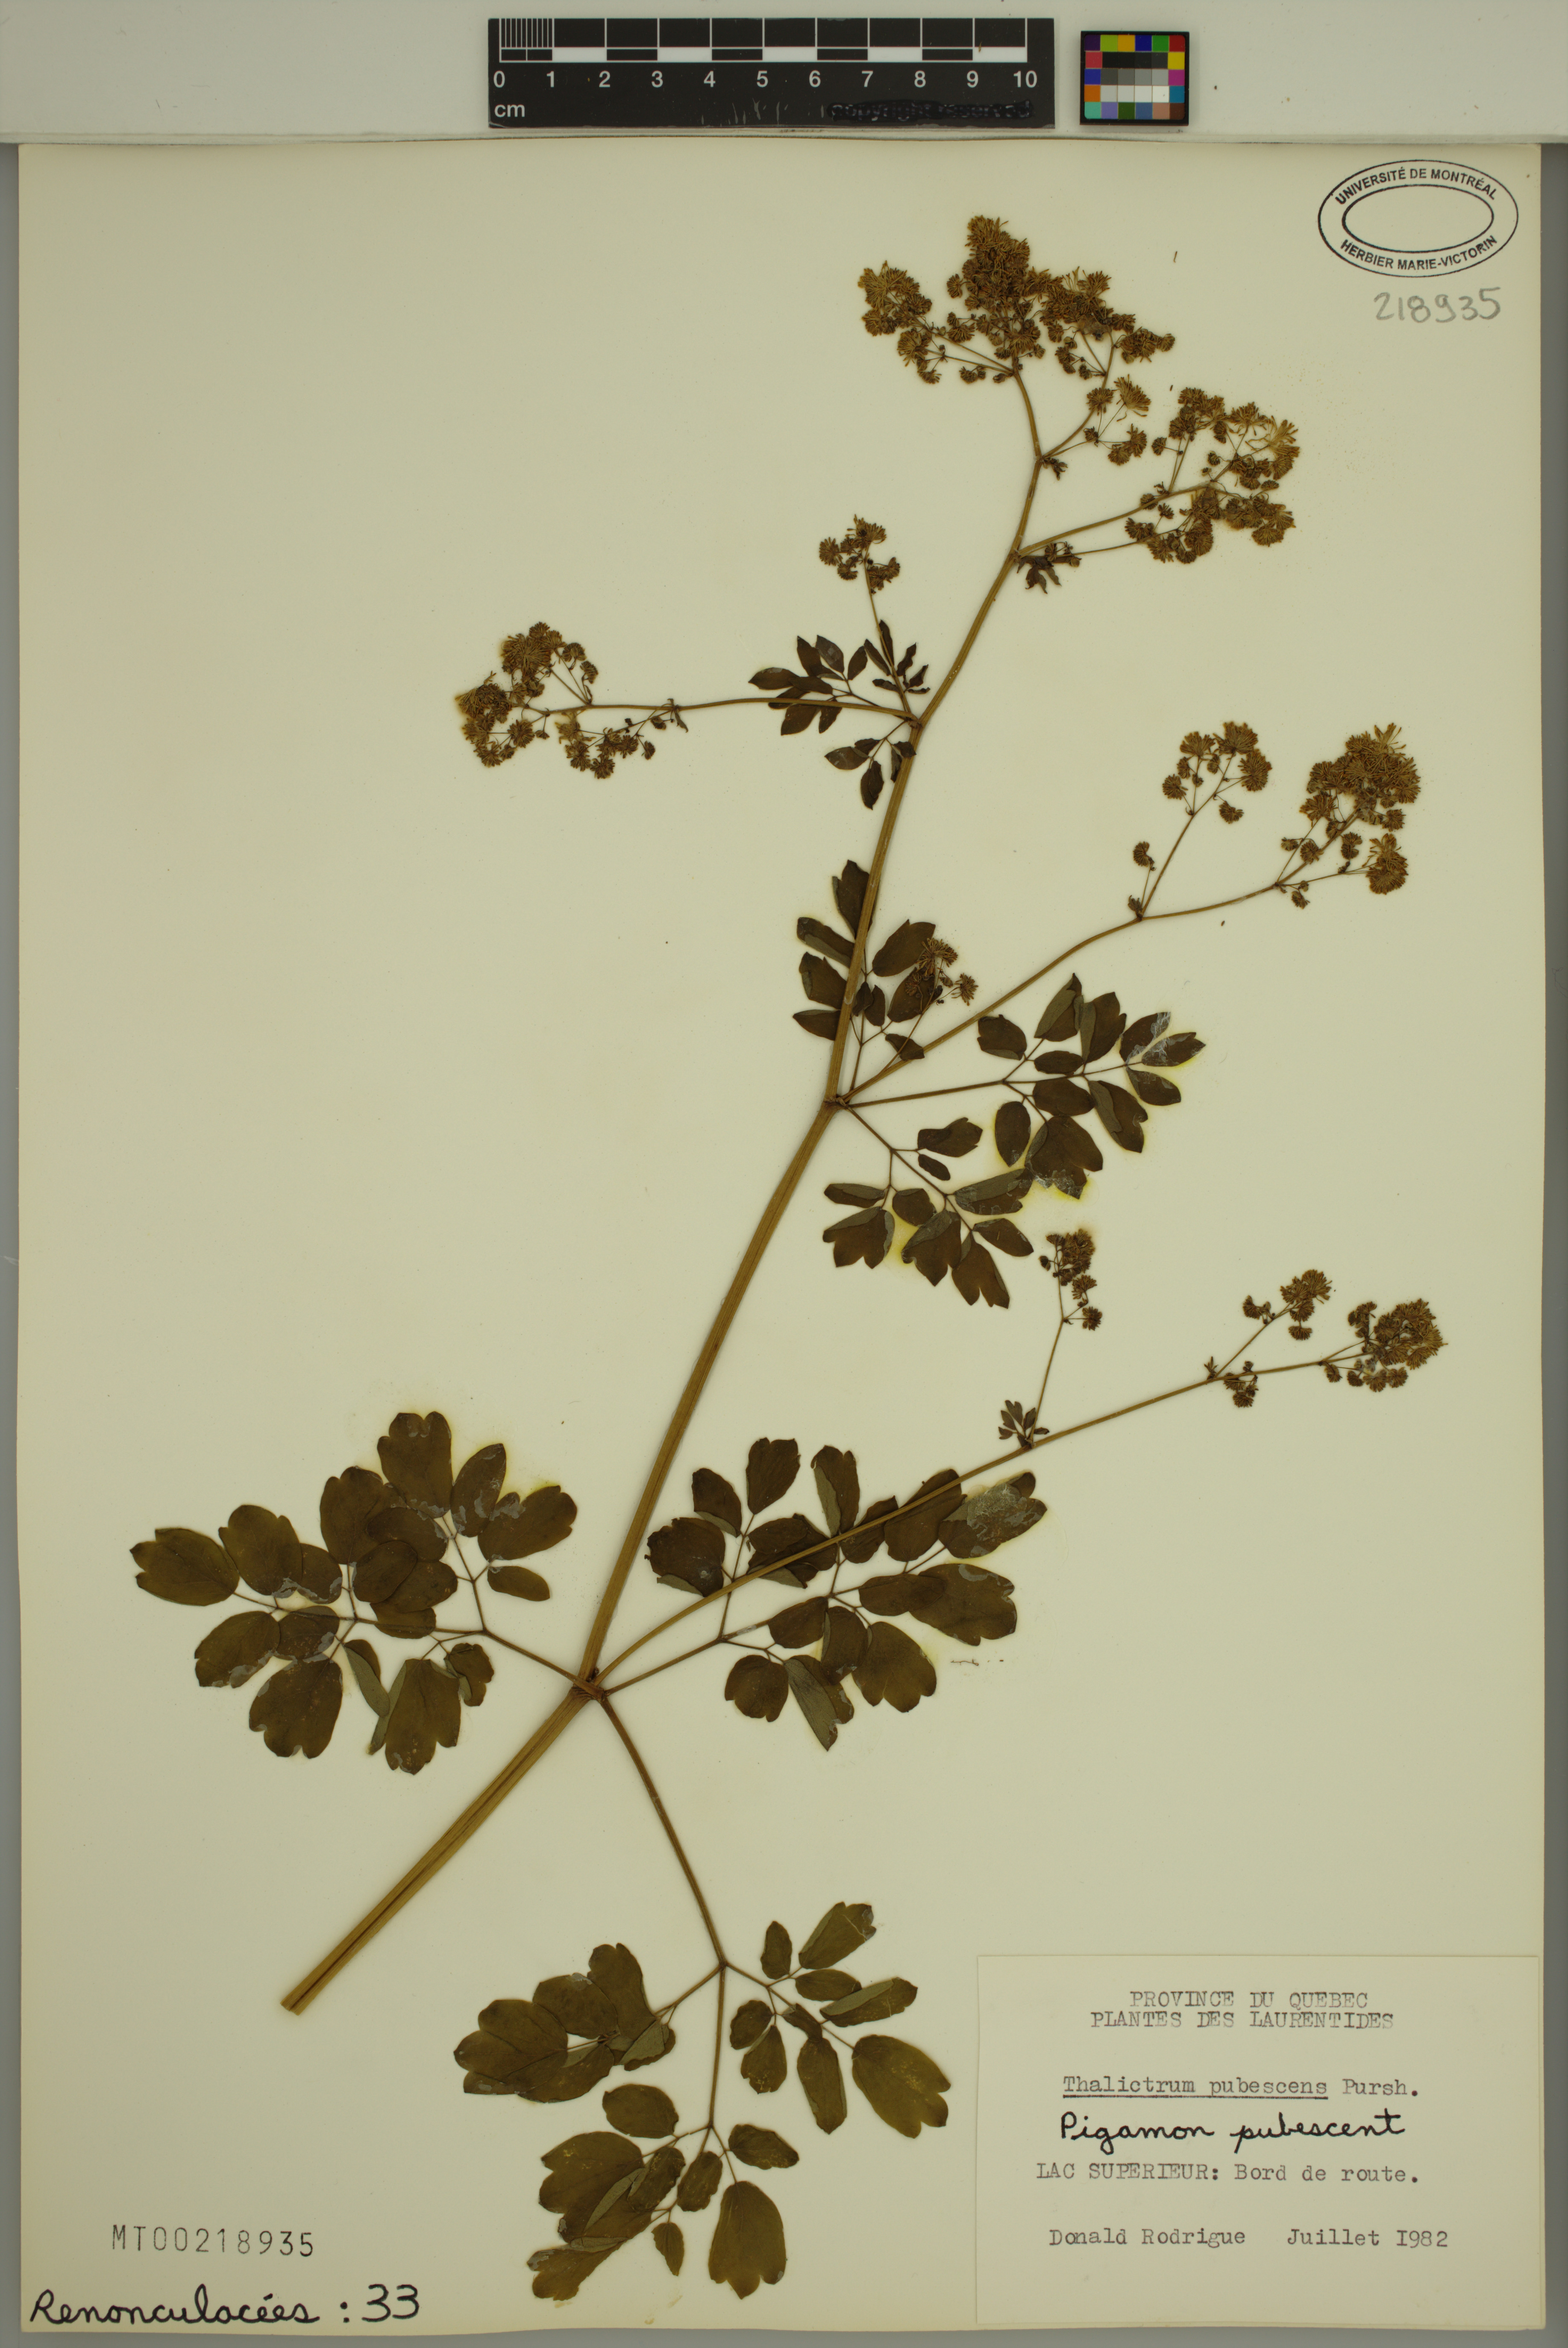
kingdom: Plantae
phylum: Tracheophyta
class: Magnoliopsida
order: Ranunculales
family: Ranunculaceae
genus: Thalictrum
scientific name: Thalictrum pubescens
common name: King-of-the-meadow
